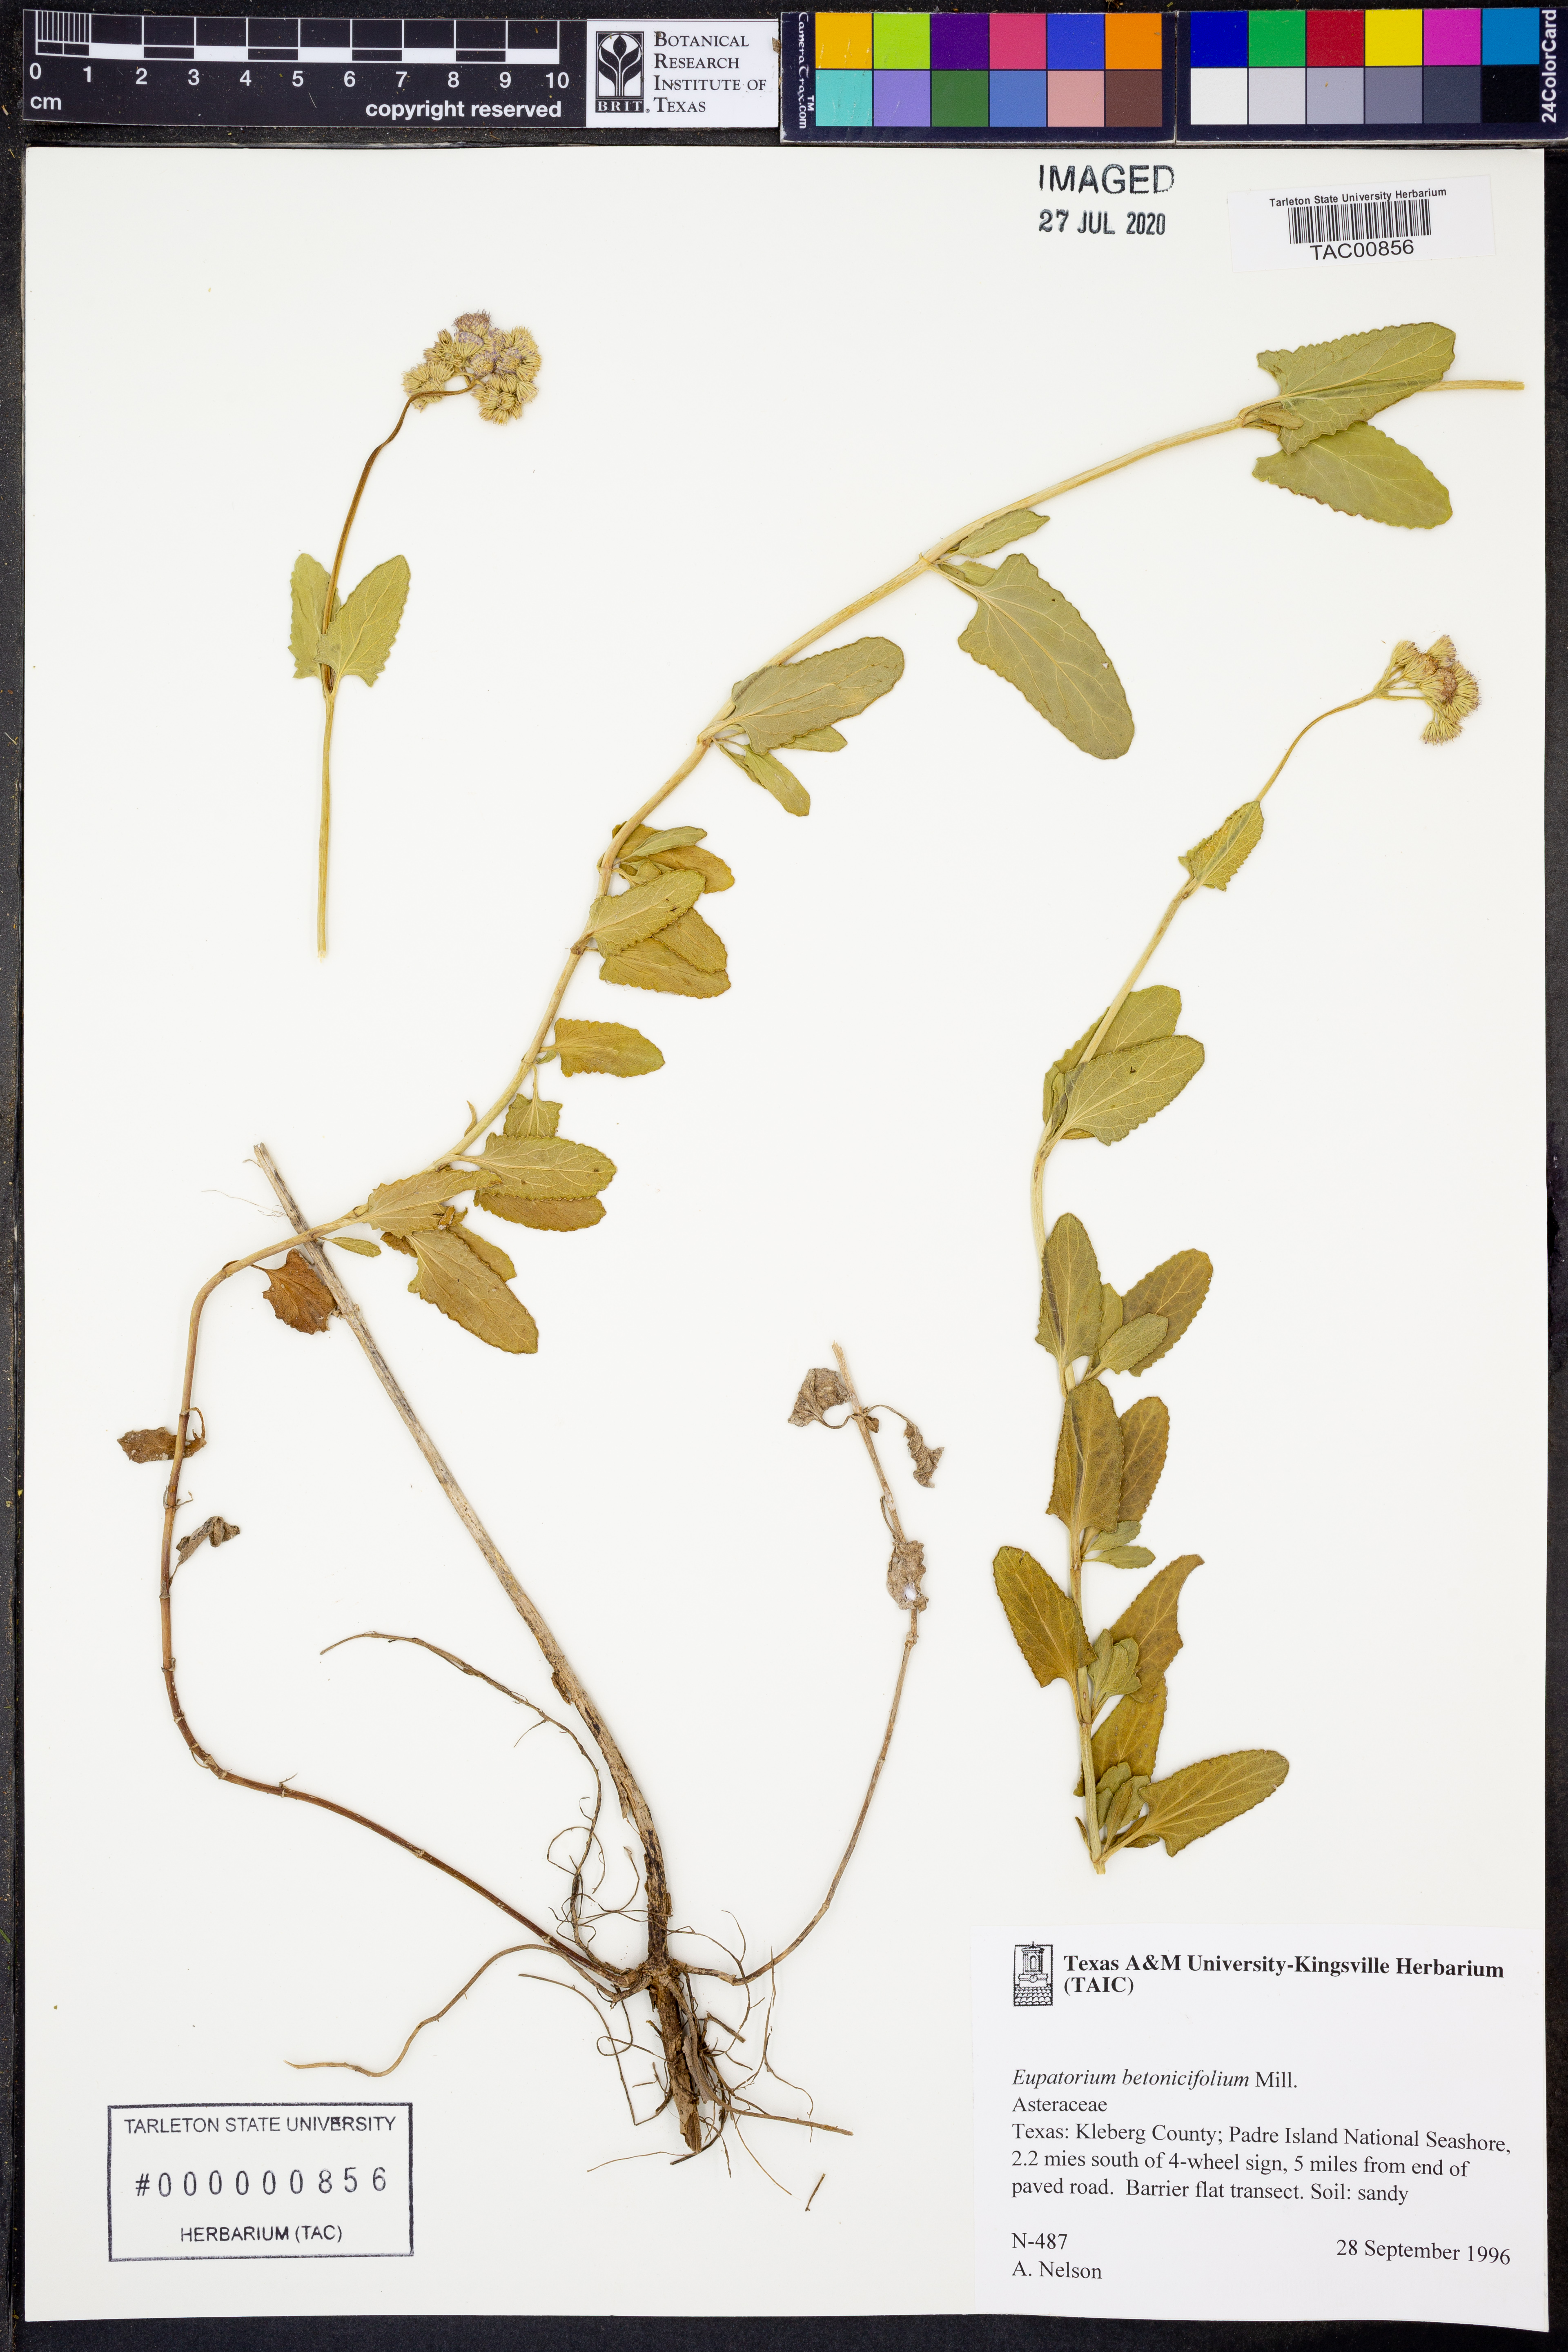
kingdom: Plantae
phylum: Tracheophyta
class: Magnoliopsida
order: Asterales
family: Asteraceae
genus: Conoclinium
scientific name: Conoclinium betonicifolium
